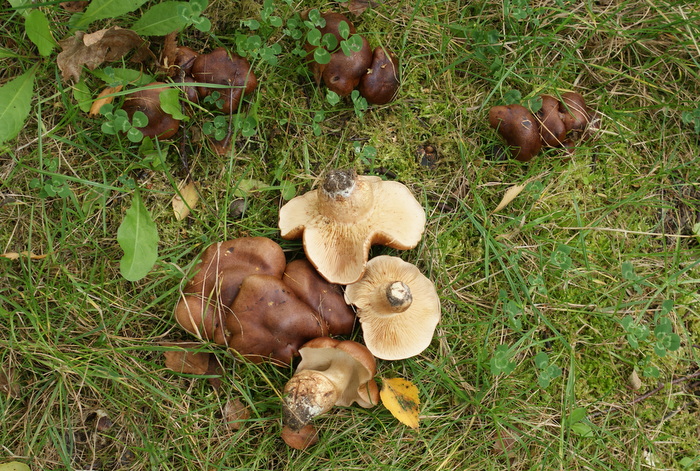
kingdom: Fungi
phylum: Basidiomycota
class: Agaricomycetes
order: Agaricales
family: Tricholomataceae
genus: Tricholoma
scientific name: Tricholoma fulvum
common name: birke-ridderhat
